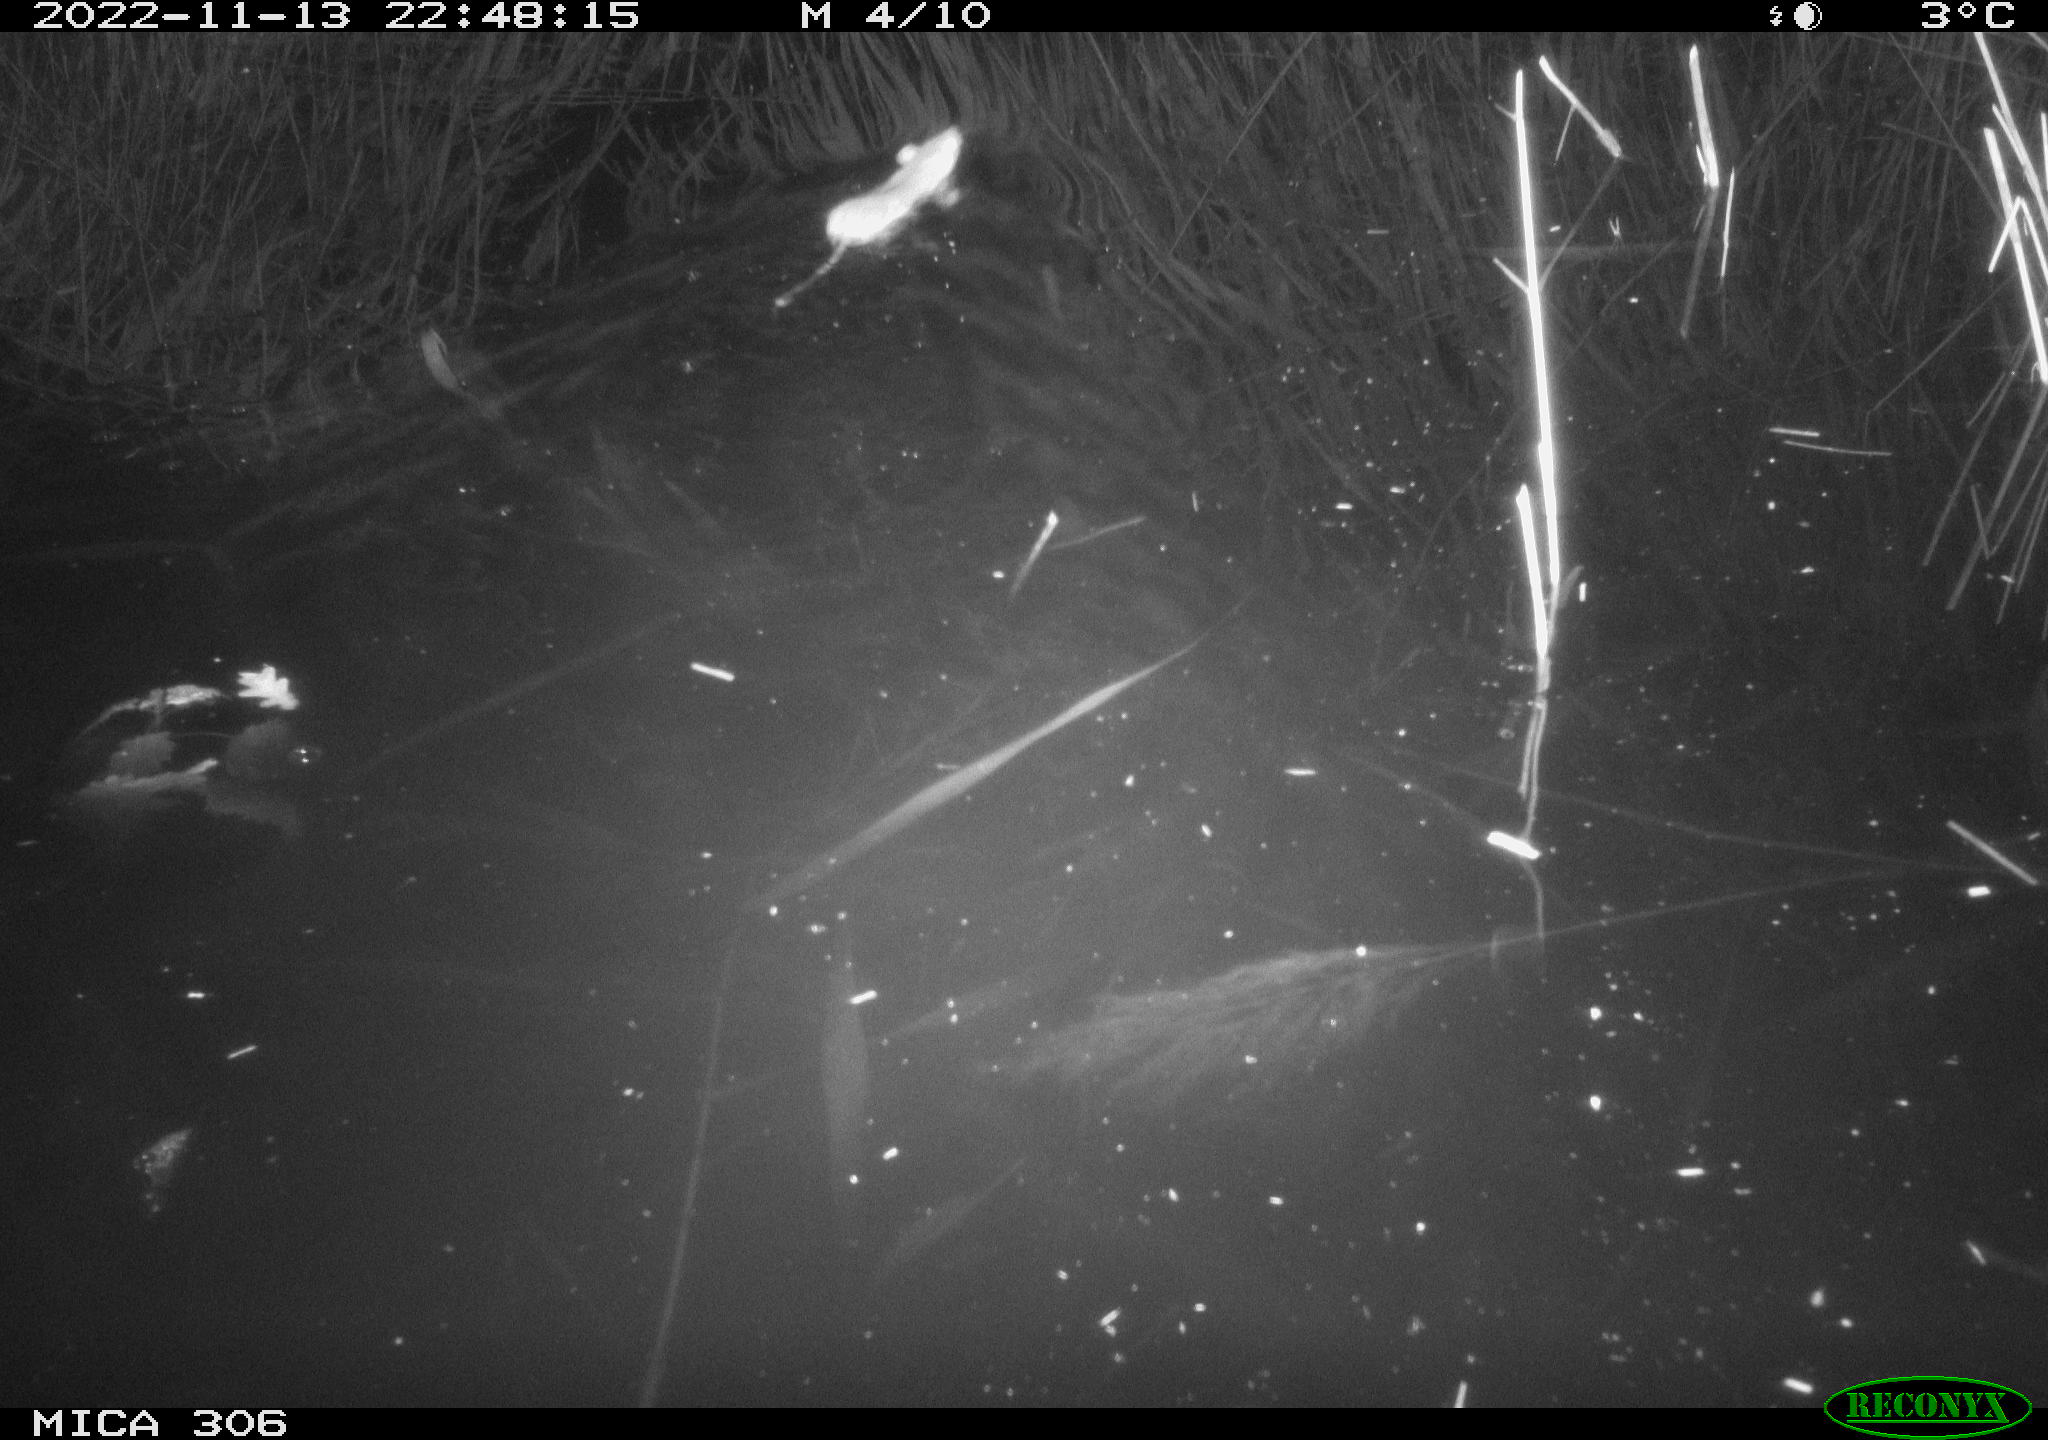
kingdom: Animalia
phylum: Chordata
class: Mammalia
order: Rodentia
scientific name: Rodentia
